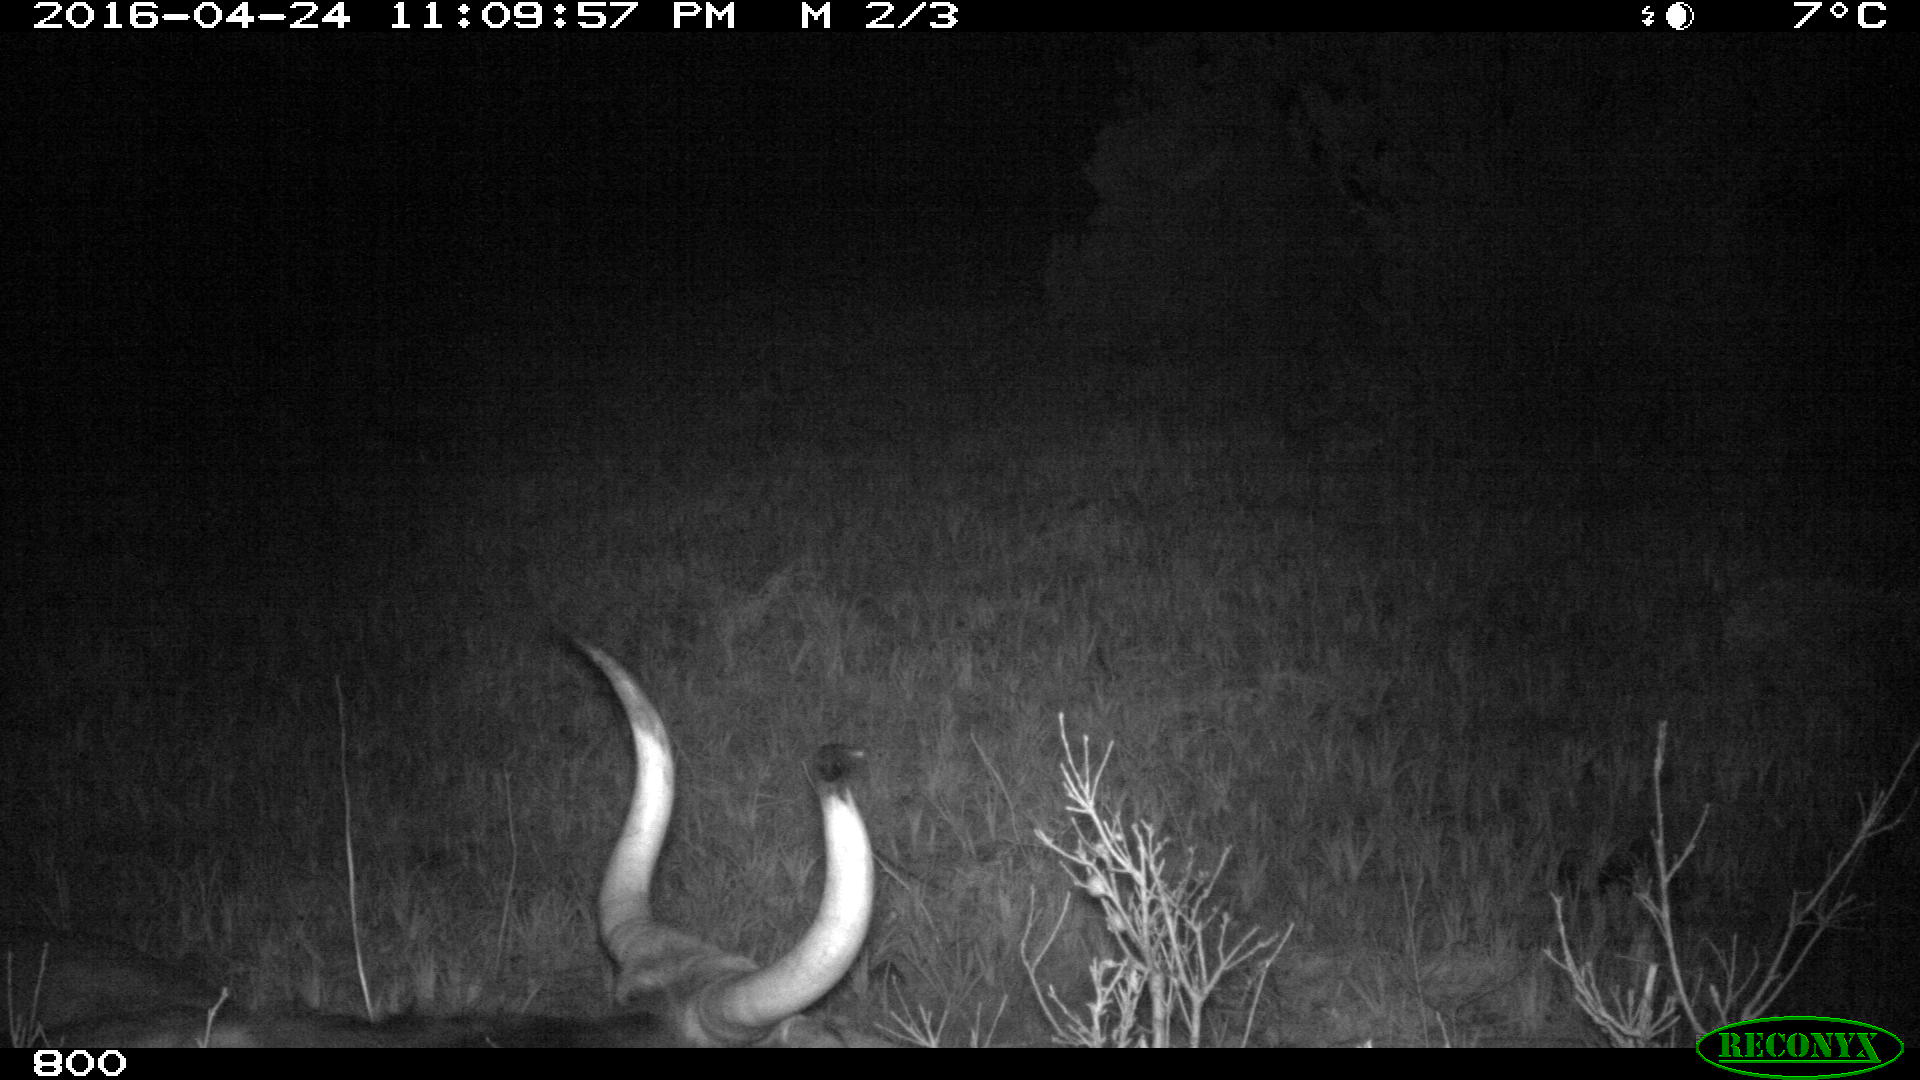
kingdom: Animalia
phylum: Chordata
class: Mammalia
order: Artiodactyla
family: Bovidae
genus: Bos
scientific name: Bos taurus
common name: Domesticated cattle
